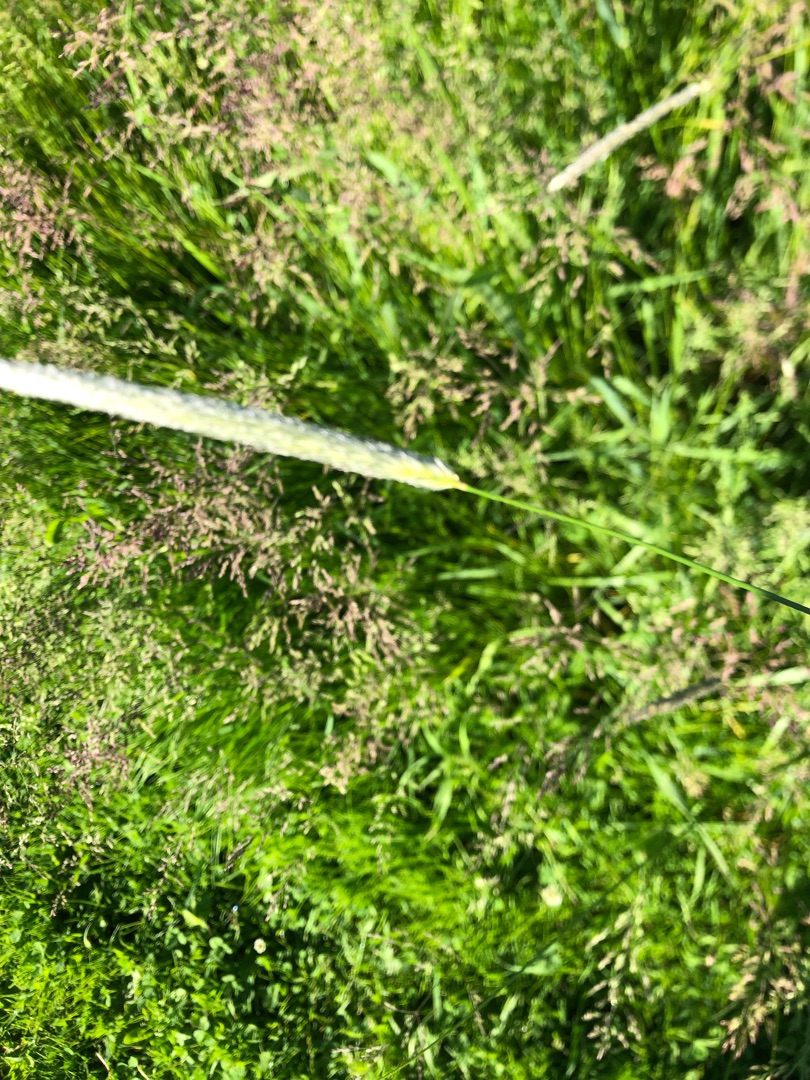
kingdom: Plantae
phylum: Tracheophyta
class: Liliopsida
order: Poales
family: Poaceae
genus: Alopecurus
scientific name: Alopecurus pratensis
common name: Eng-rævehale
